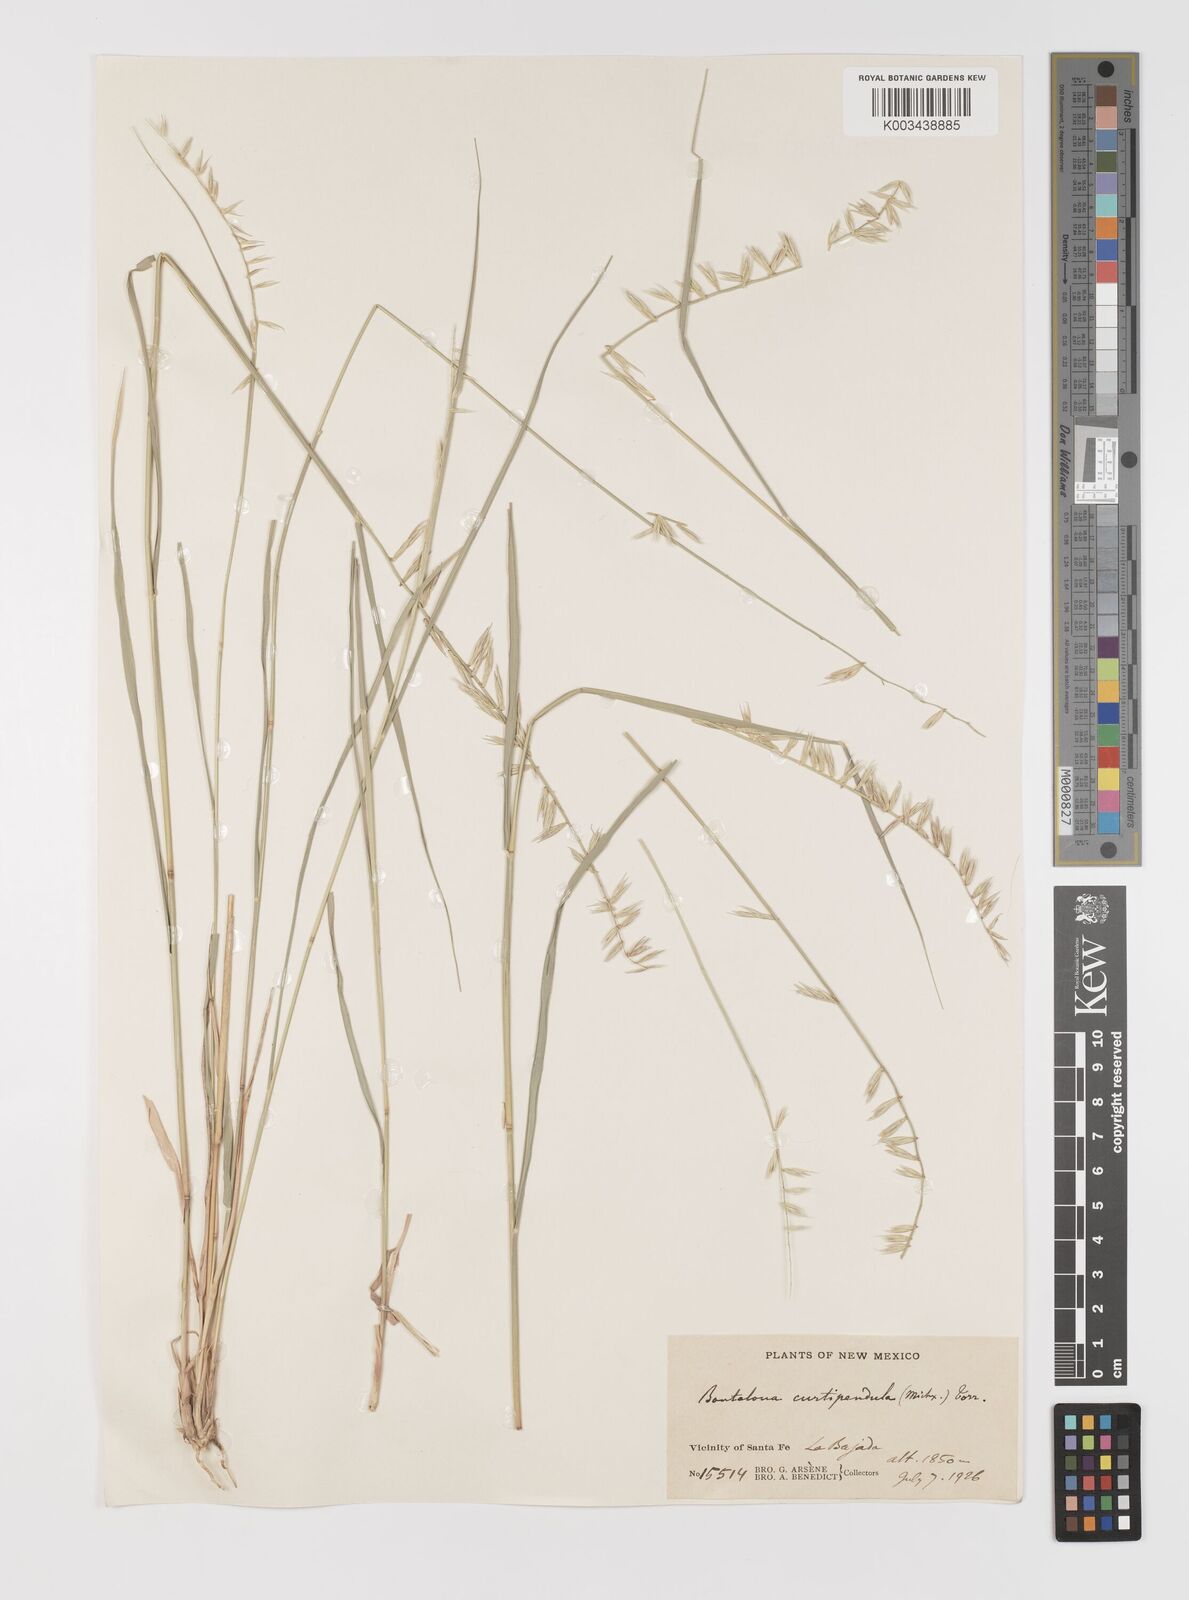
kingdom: Plantae
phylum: Tracheophyta
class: Liliopsida
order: Poales
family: Poaceae
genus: Bouteloua
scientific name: Bouteloua curtipendula
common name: Side-oats grama
